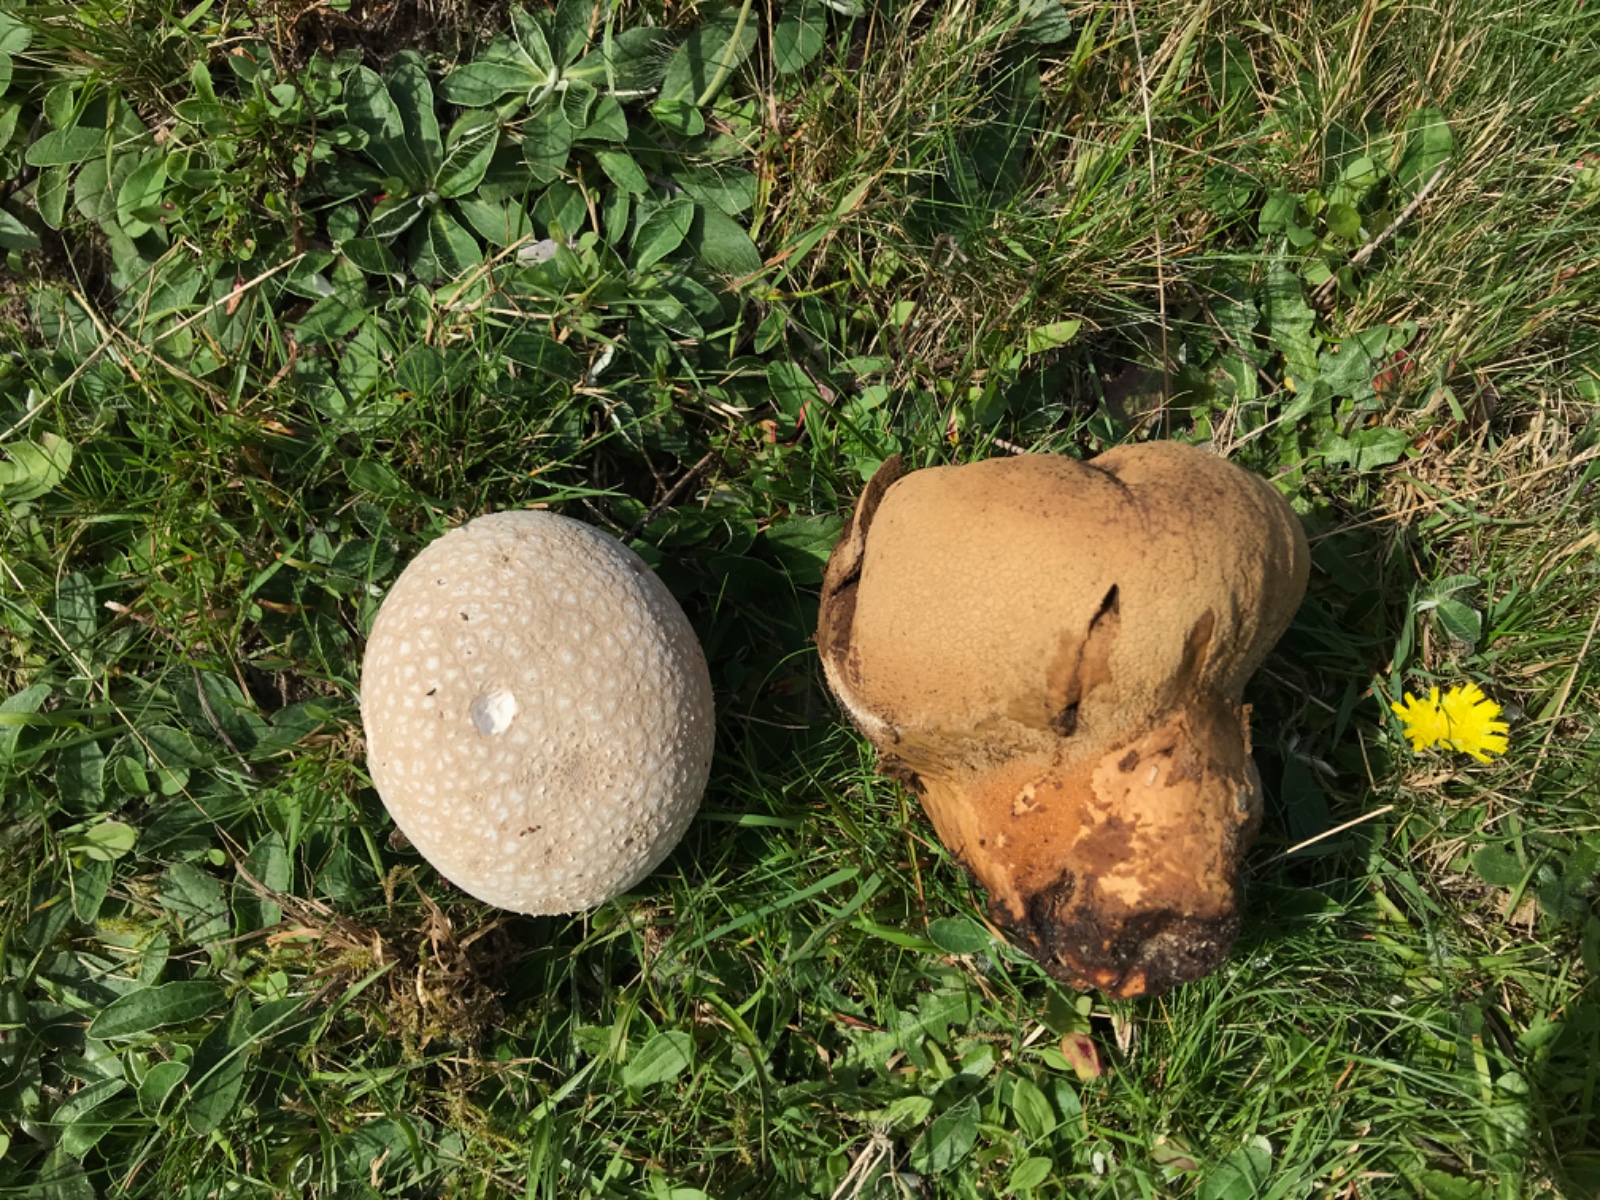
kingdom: Fungi
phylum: Basidiomycota
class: Agaricomycetes
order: Agaricales
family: Lycoperdaceae
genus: Bovistella
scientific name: Bovistella utriformis
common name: skællet støvbold
